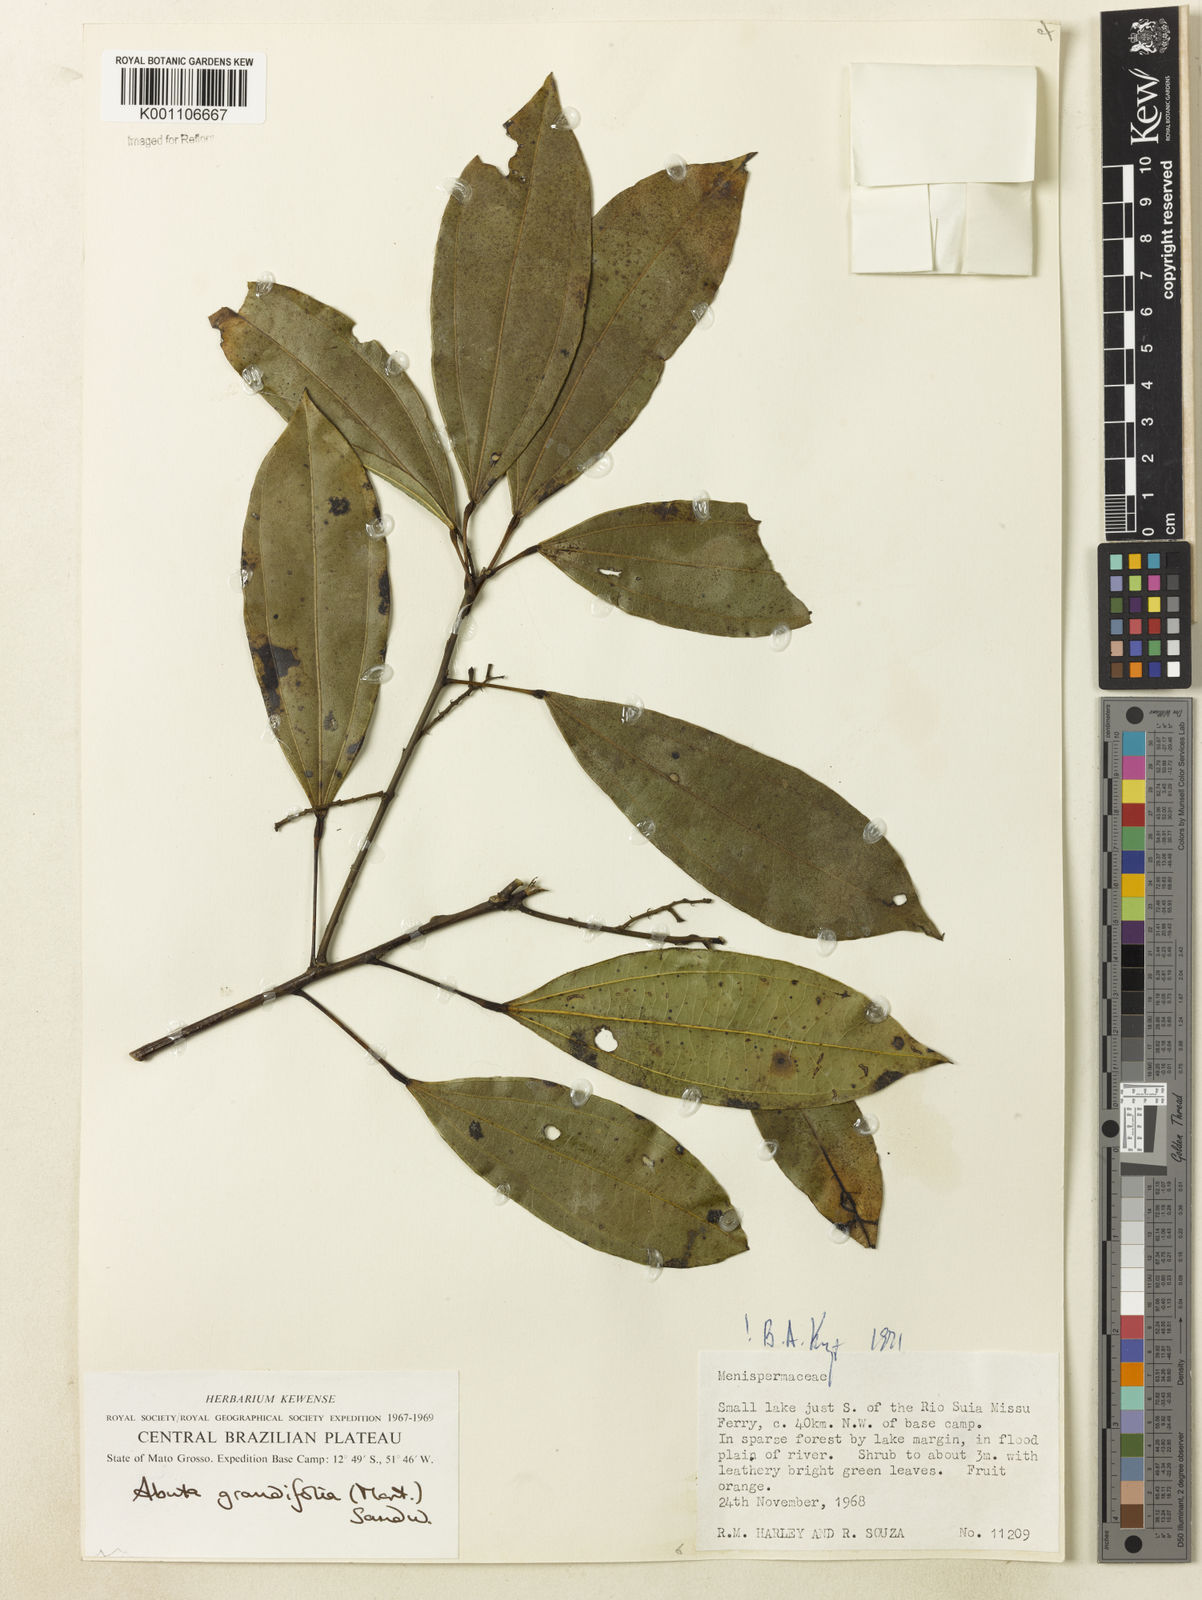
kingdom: Plantae
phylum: Tracheophyta
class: Magnoliopsida
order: Ranunculales
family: Menispermaceae
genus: Abuta
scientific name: Abuta grandifolia
